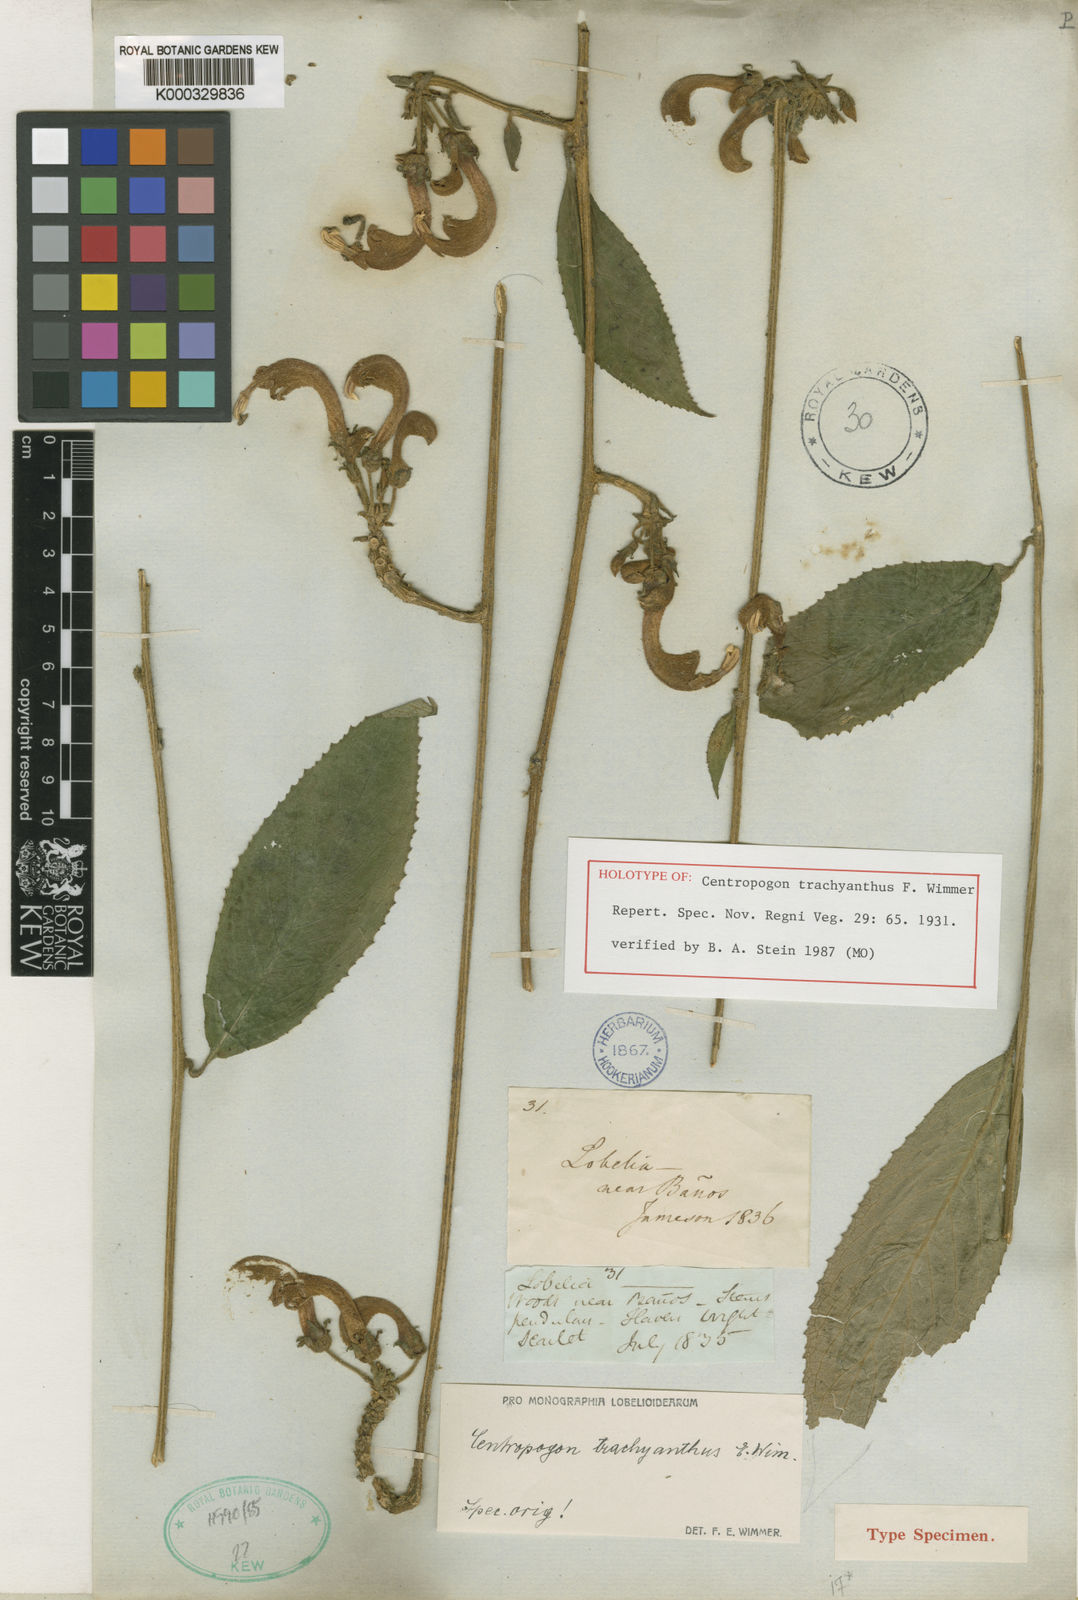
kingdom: Plantae
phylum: Tracheophyta
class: Magnoliopsida
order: Asterales
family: Campanulaceae
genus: Centropogon
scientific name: Centropogon trachyanthus
